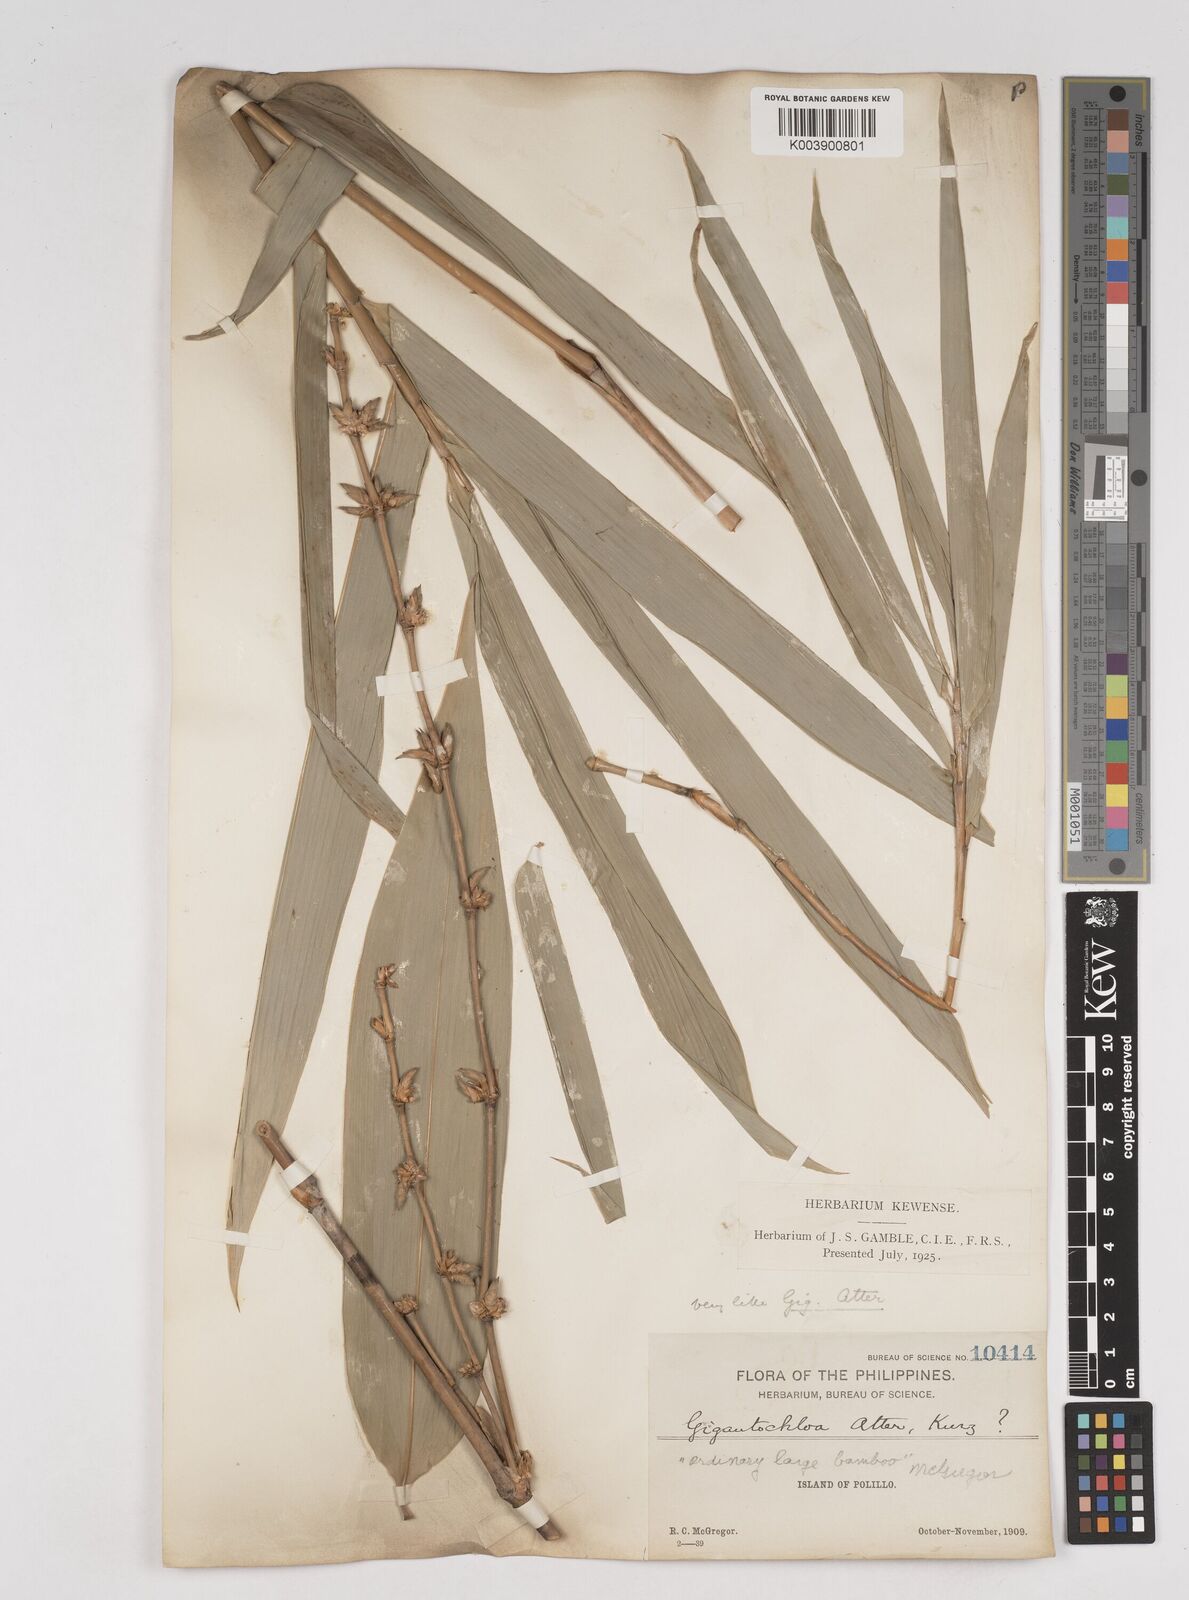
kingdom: Plantae
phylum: Tracheophyta
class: Liliopsida
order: Poales
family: Poaceae
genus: Gigantochloa
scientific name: Gigantochloa levis
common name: Smooth-shoot gigantochloa
